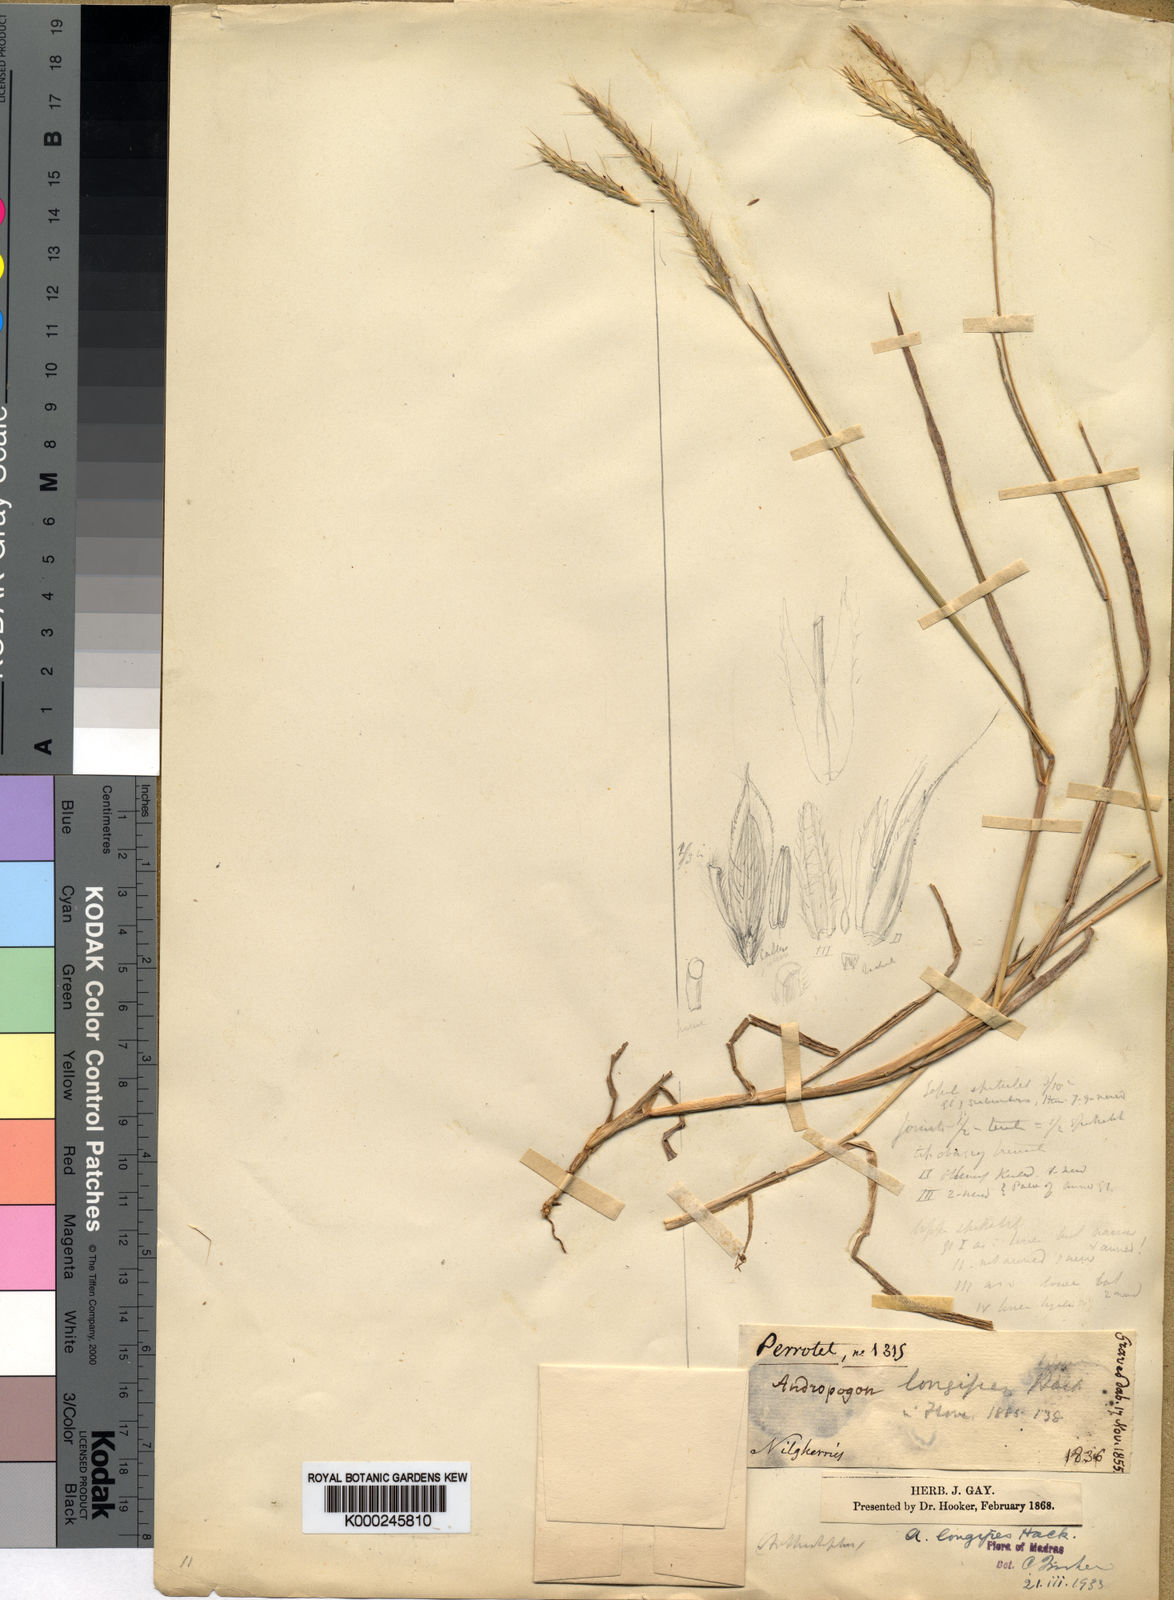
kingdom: Plantae
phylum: Tracheophyta
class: Liliopsida
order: Poales
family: Poaceae
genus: Andropogon
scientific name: Andropogon amethystinus
